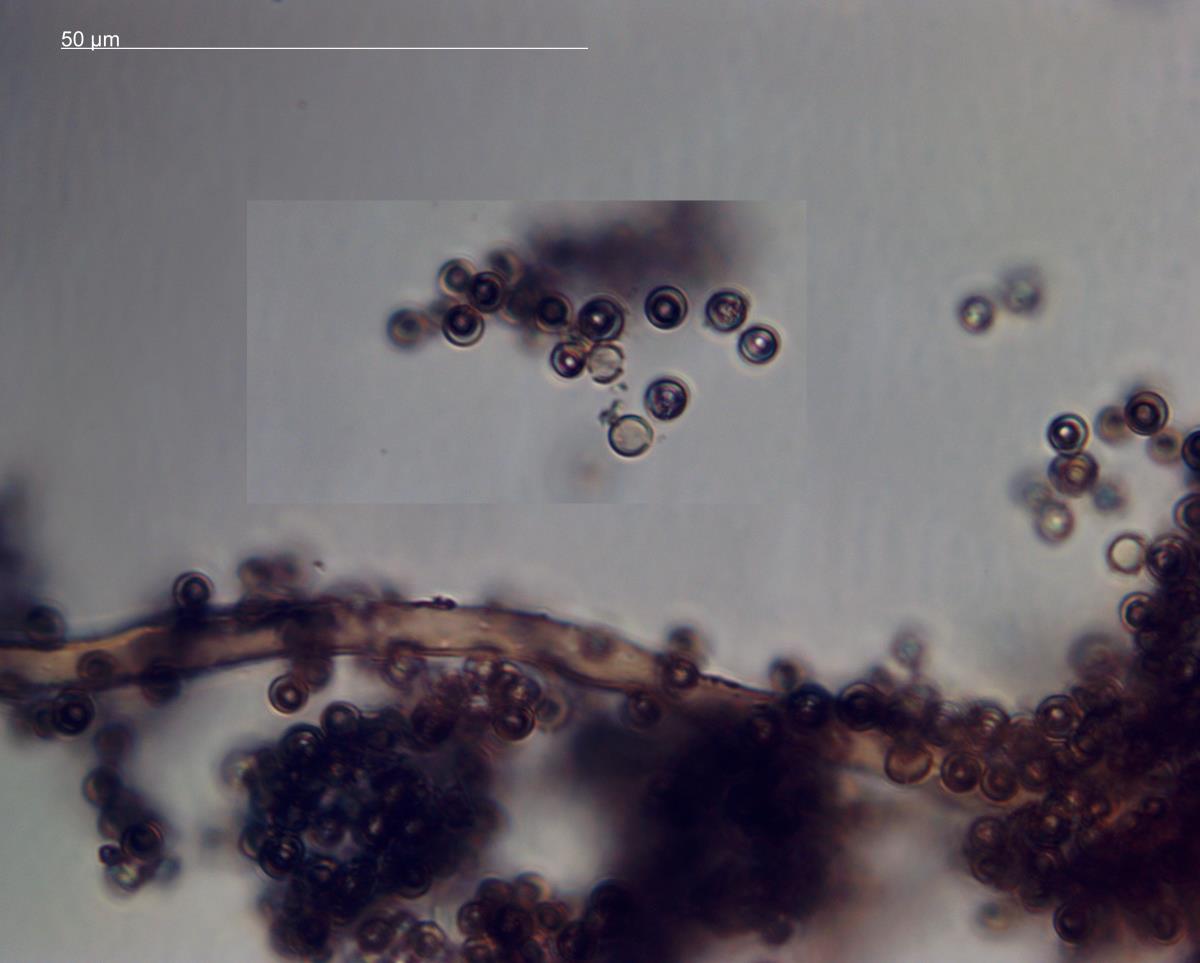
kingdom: Fungi
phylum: Basidiomycota
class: Agaricomycetes
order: Agaricales
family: Lycoperdaceae
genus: Bovista
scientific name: Bovista
